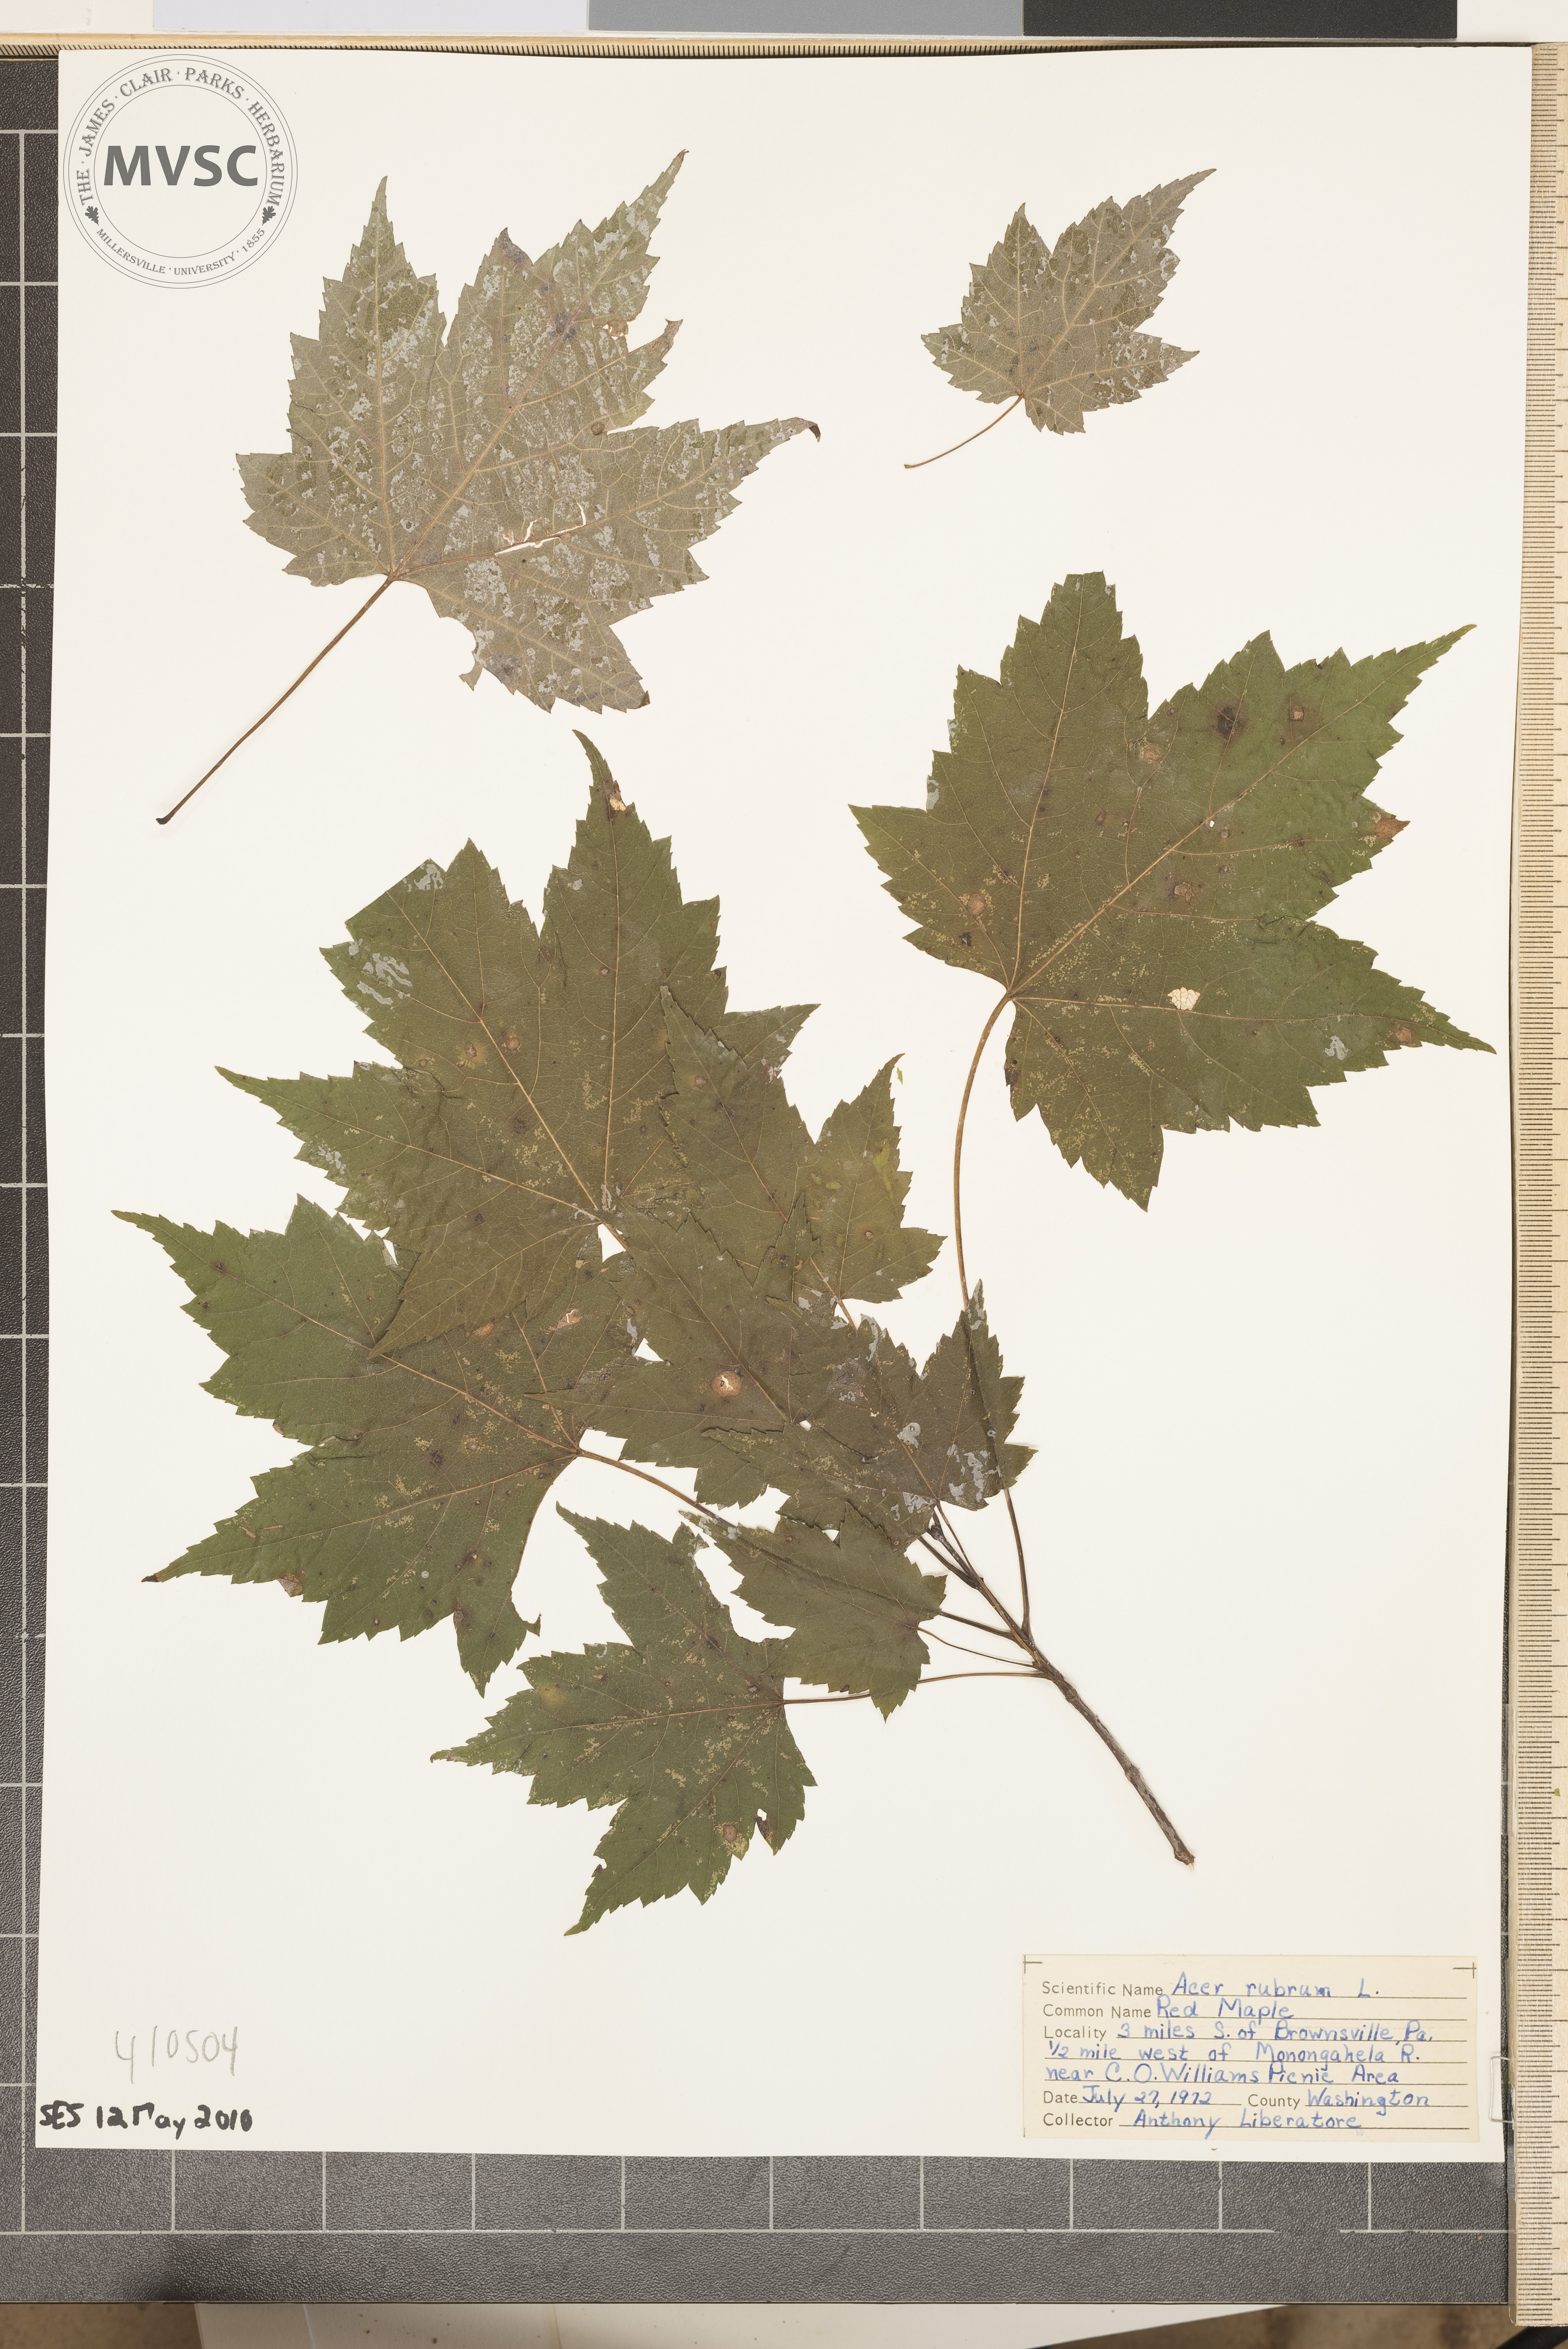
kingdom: Plantae
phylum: Tracheophyta
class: Magnoliopsida
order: Sapindales
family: Sapindaceae
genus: Acer
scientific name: Acer rubrum
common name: Red maple
